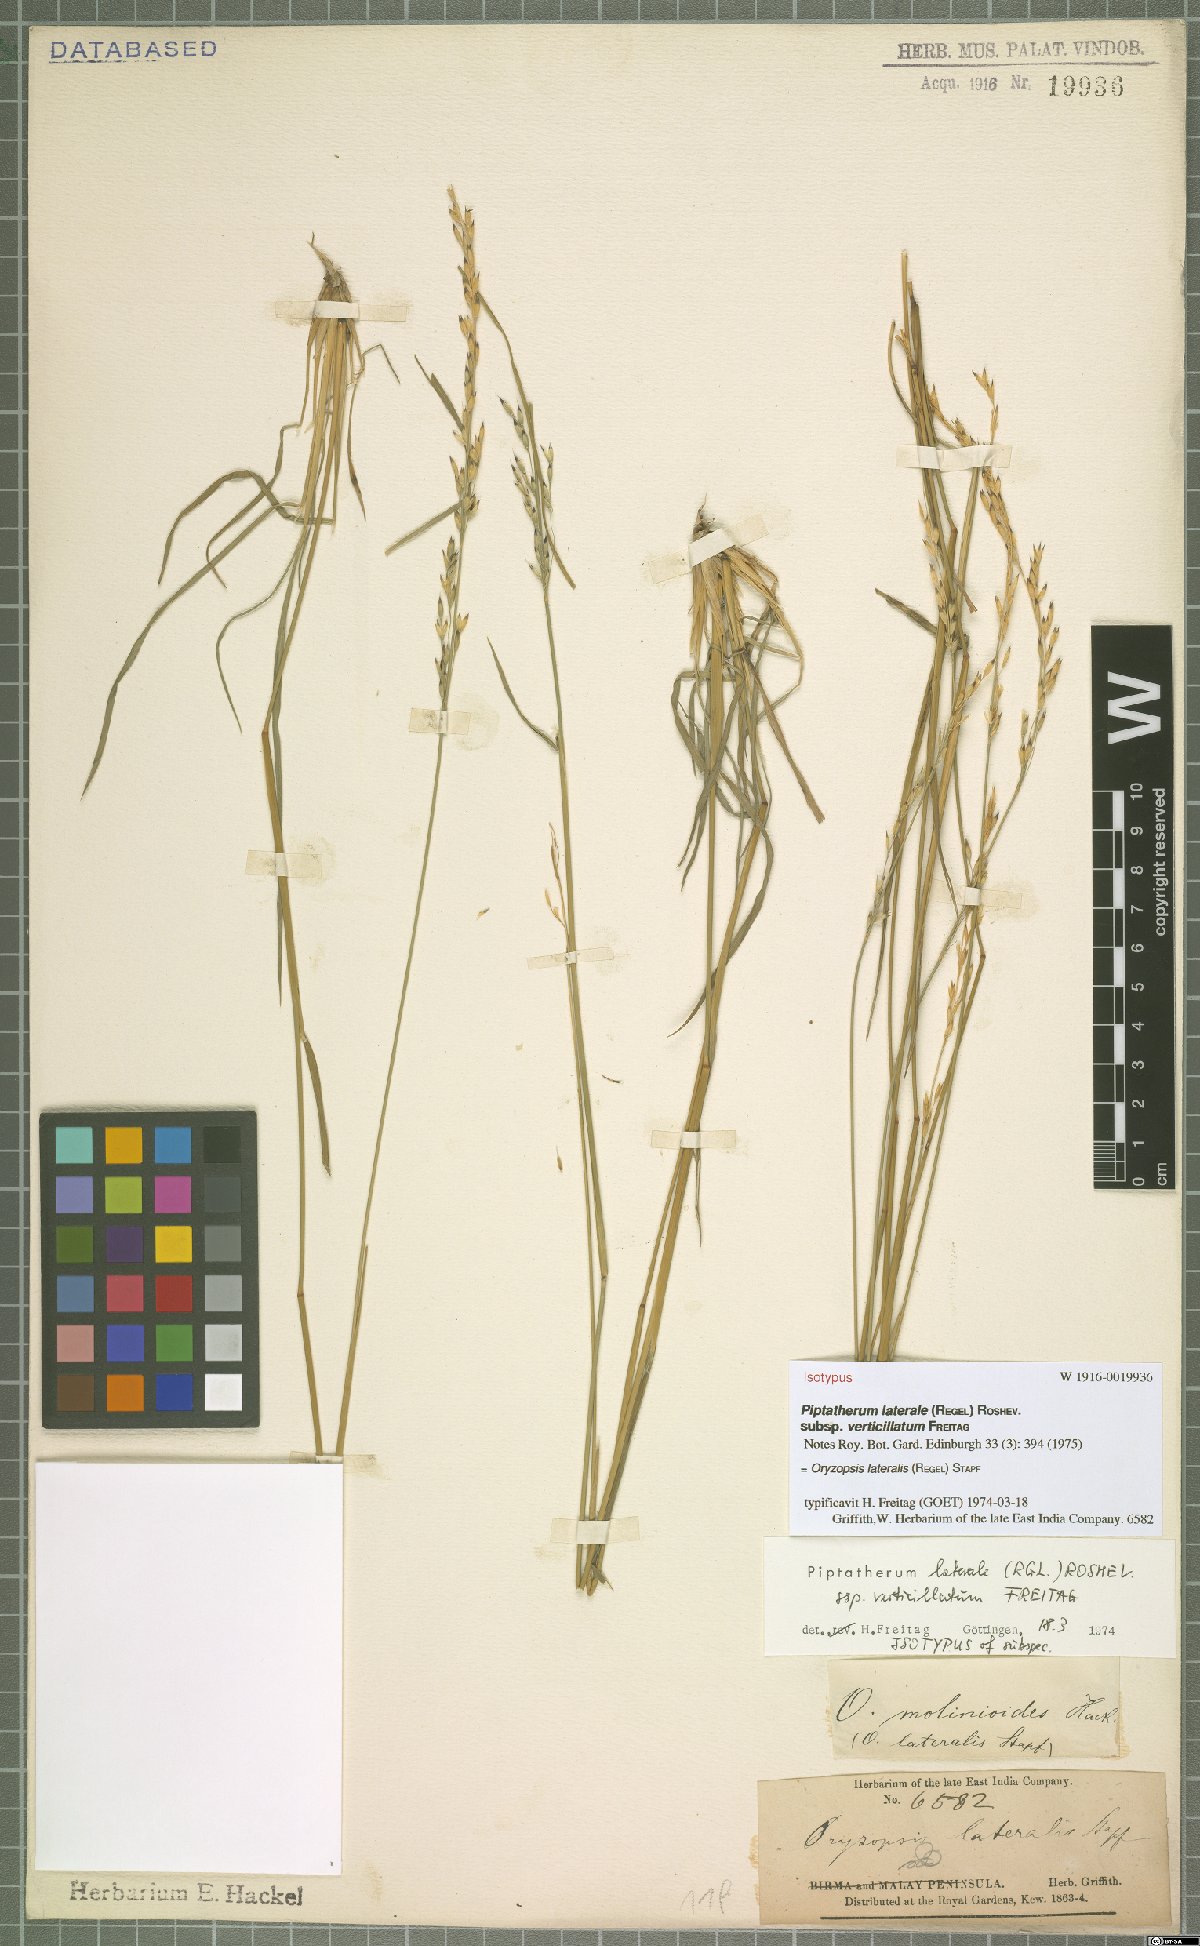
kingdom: Plantae
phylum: Tracheophyta
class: Liliopsida
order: Poales
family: Poaceae
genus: Piptatherum
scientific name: Piptatherum laterale
